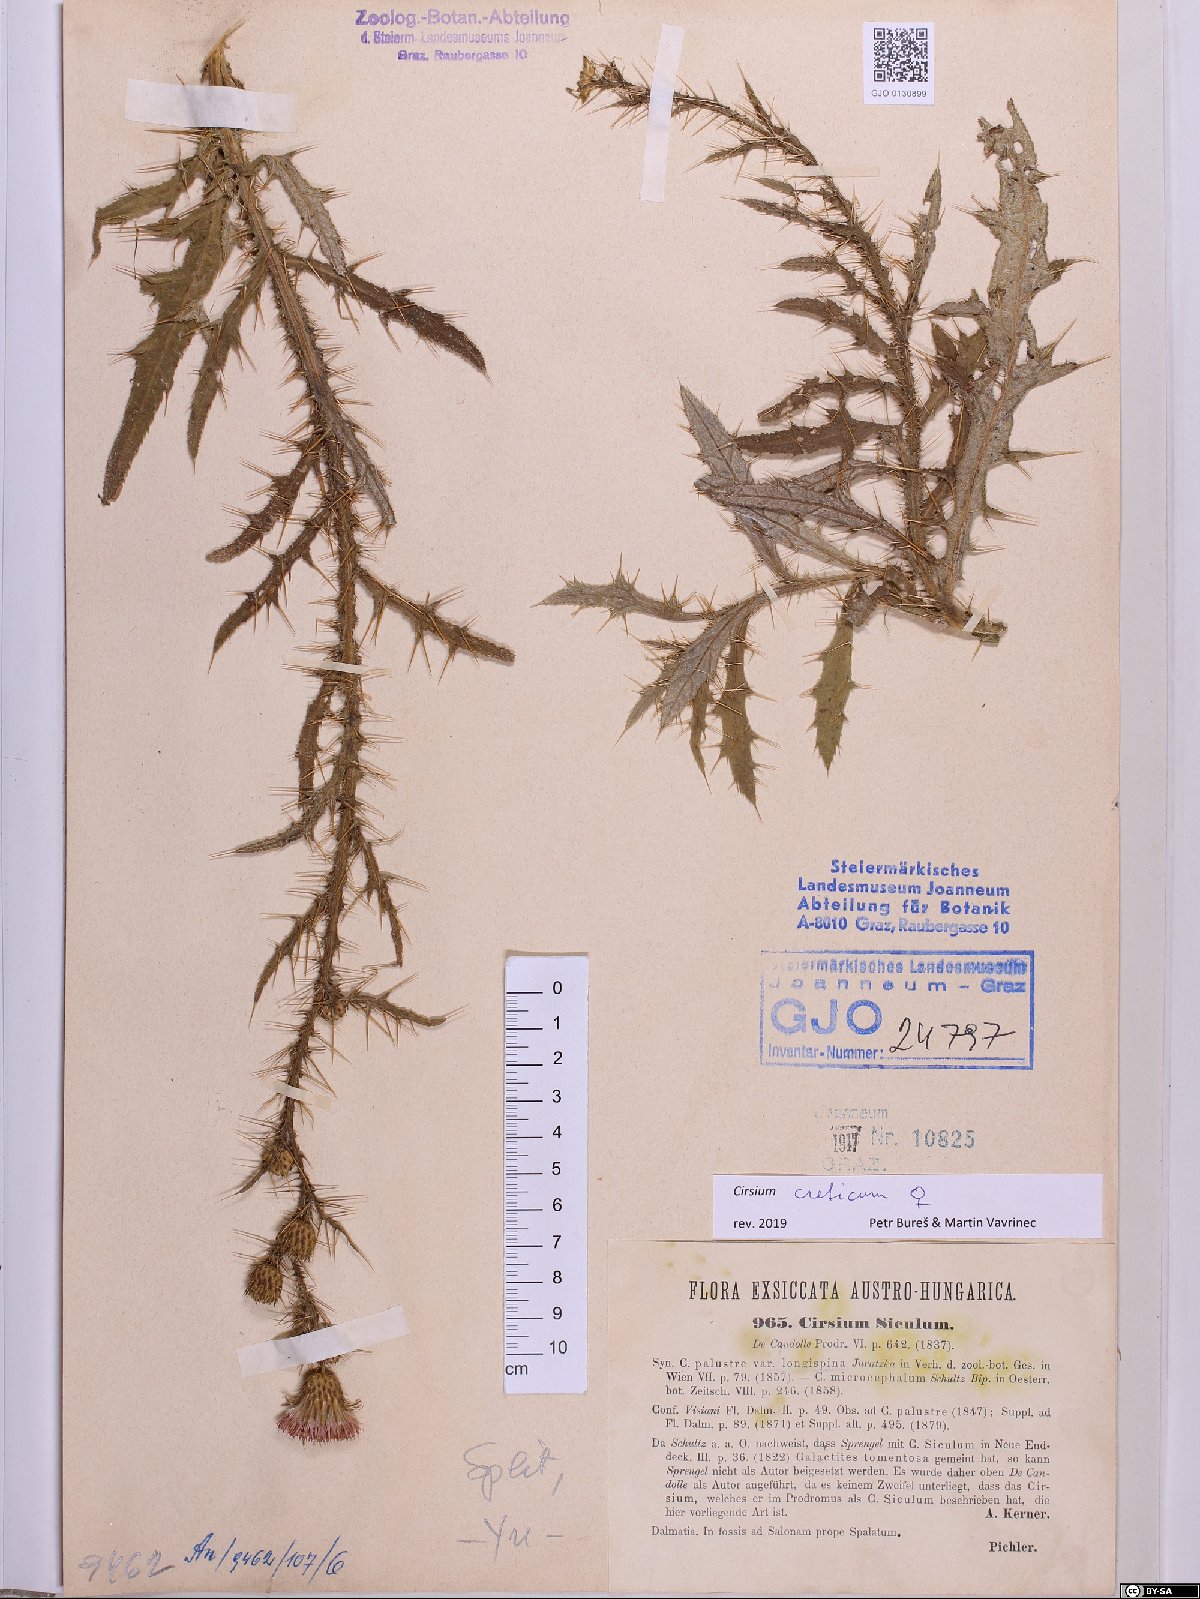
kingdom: Plantae
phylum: Tracheophyta
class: Magnoliopsida
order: Asterales
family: Asteraceae
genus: Cirsium
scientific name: Cirsium creticum
